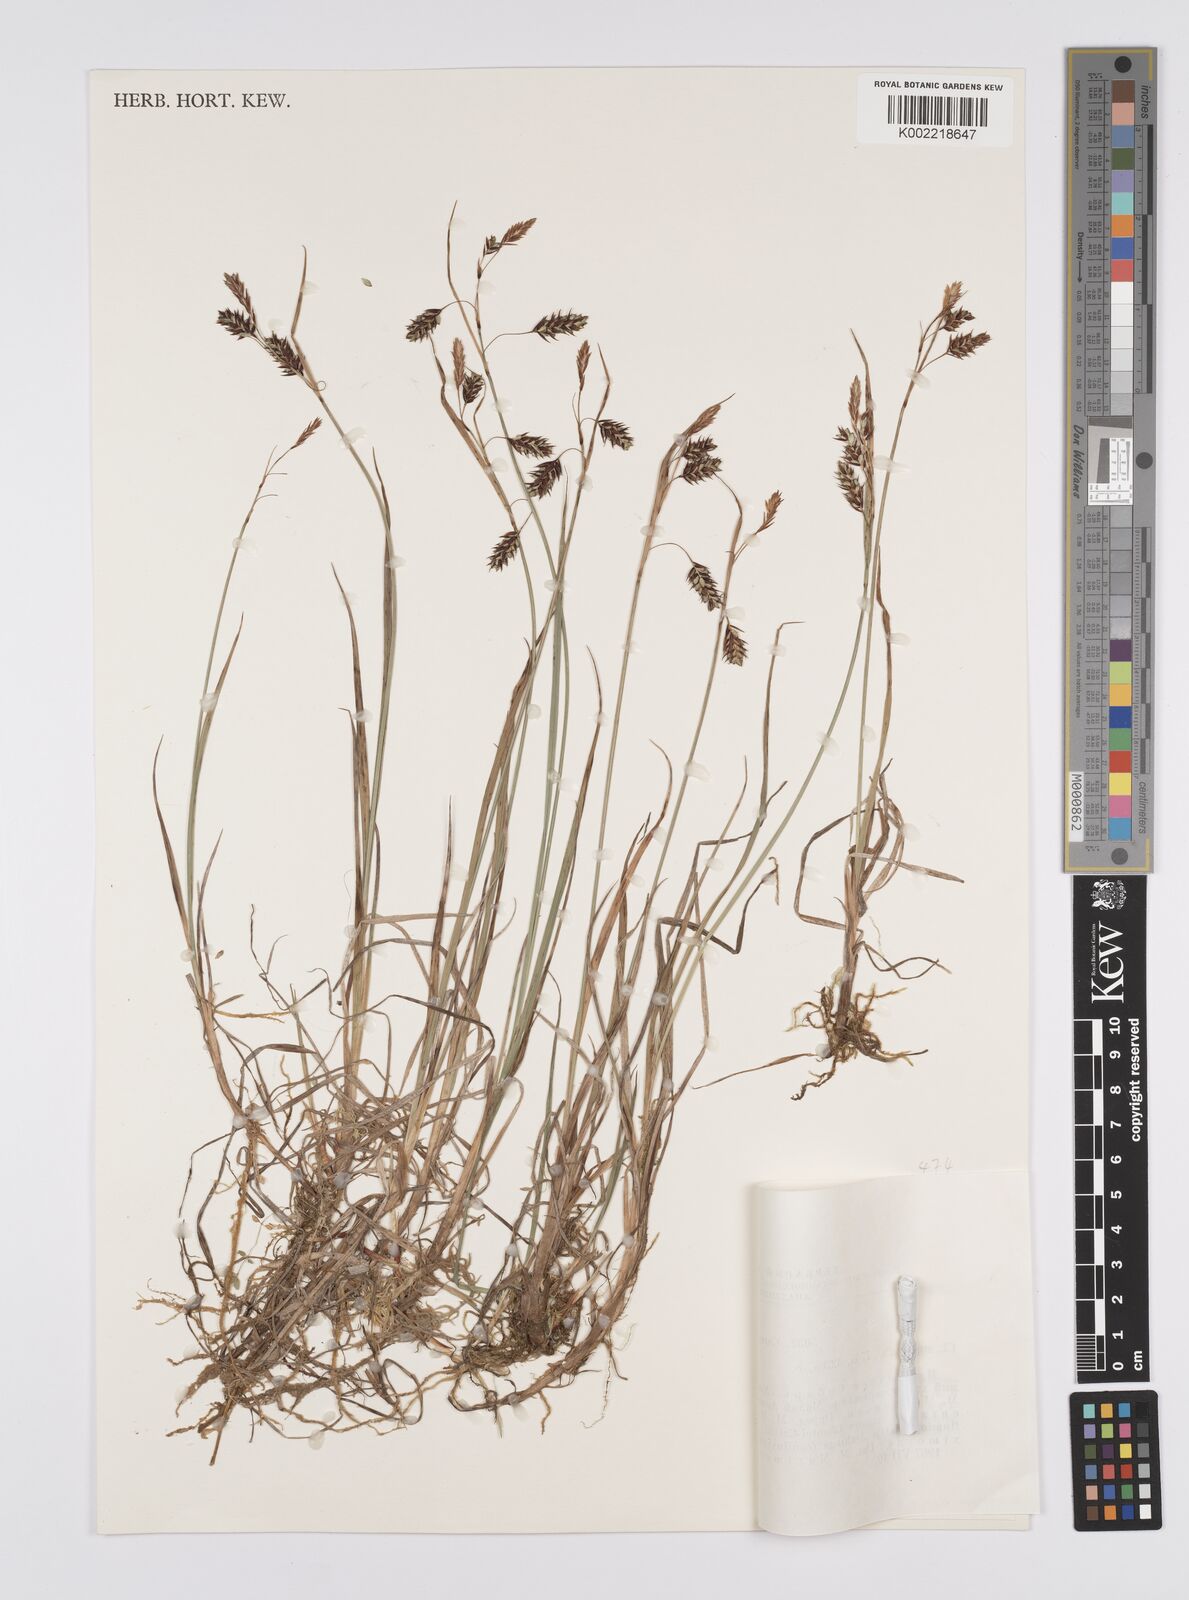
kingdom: Plantae
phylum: Tracheophyta
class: Liliopsida
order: Poales
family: Cyperaceae
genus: Carex
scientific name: Carex limosa
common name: Bog sedge
